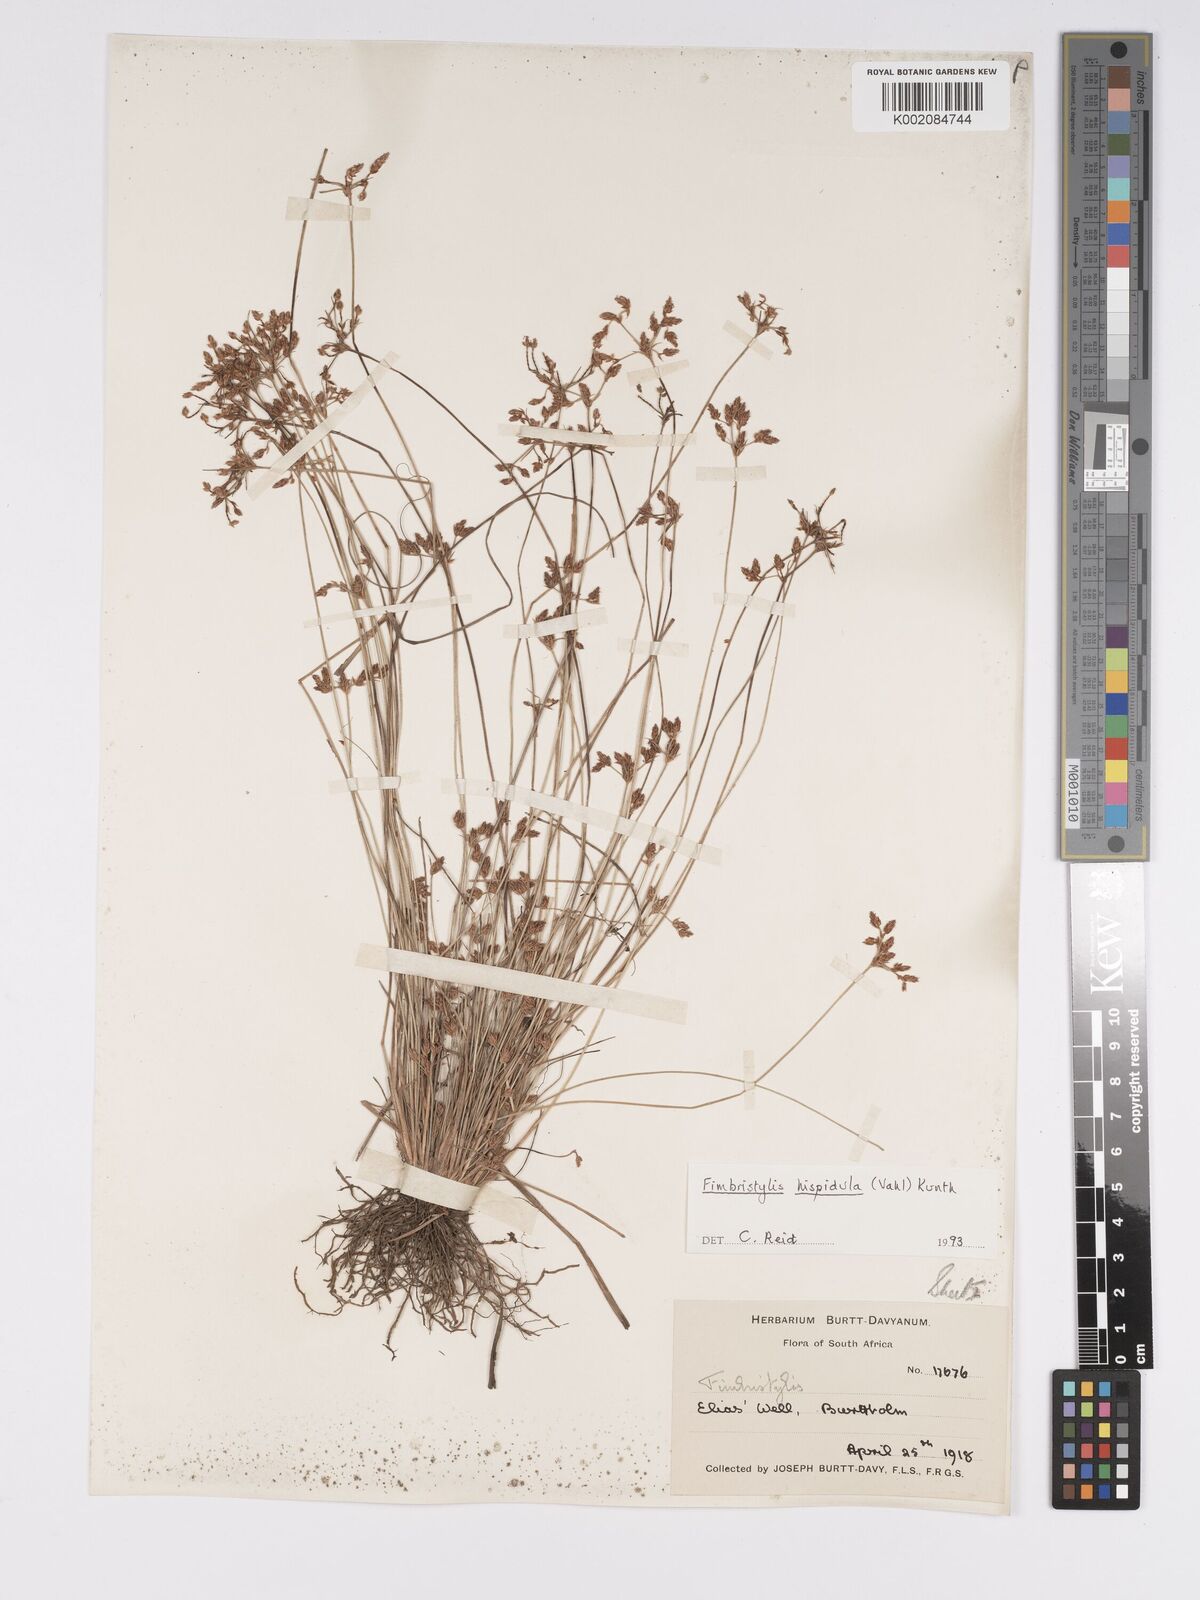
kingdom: Plantae
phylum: Tracheophyta
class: Liliopsida
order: Poales
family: Cyperaceae
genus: Bulbostylis
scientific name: Bulbostylis
